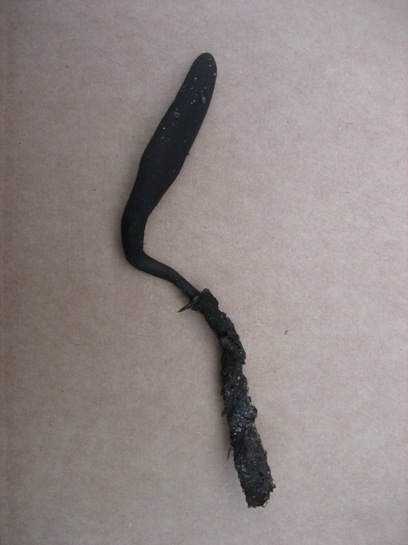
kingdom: Fungi
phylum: Ascomycota
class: Sordariomycetes
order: Xylariales
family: Xylariaceae
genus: Xylaria
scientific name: Xylaria longipes
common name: slank stødsvamp
